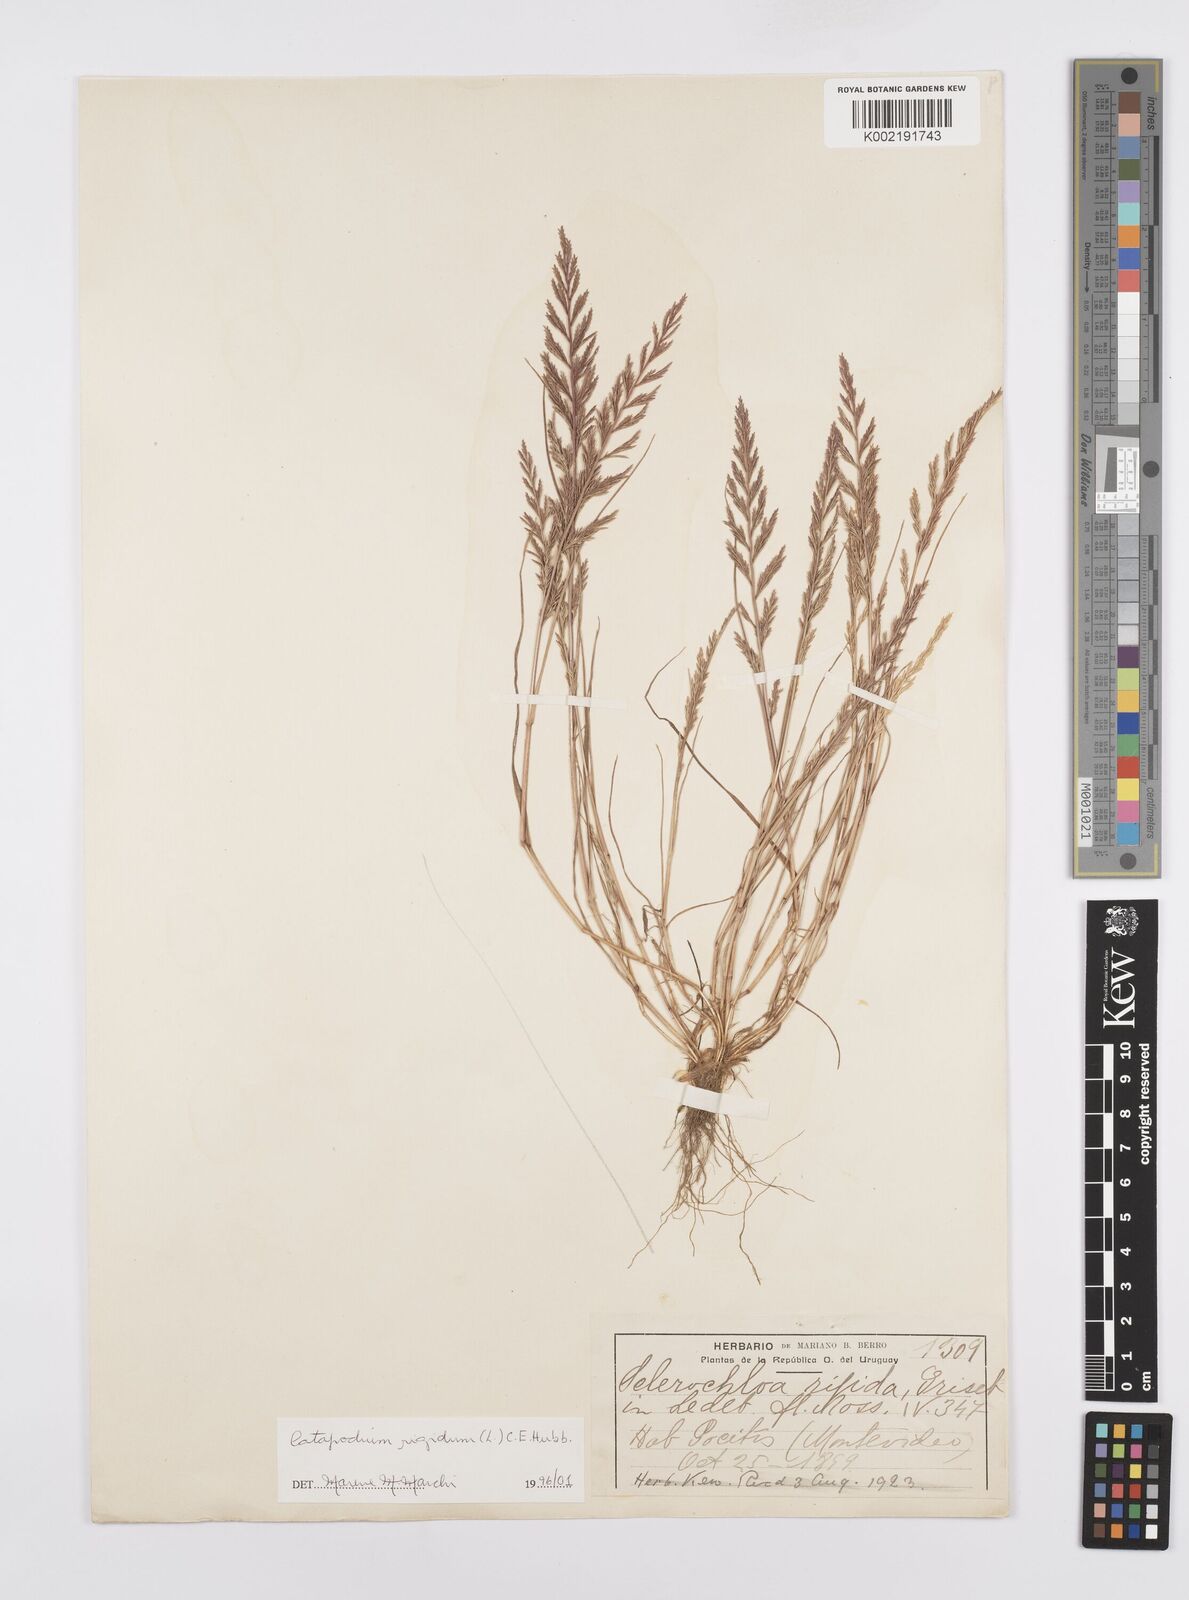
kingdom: Plantae
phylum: Tracheophyta
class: Liliopsida
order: Poales
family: Poaceae
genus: Catapodium
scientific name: Catapodium rigidum
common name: Fern-grass
